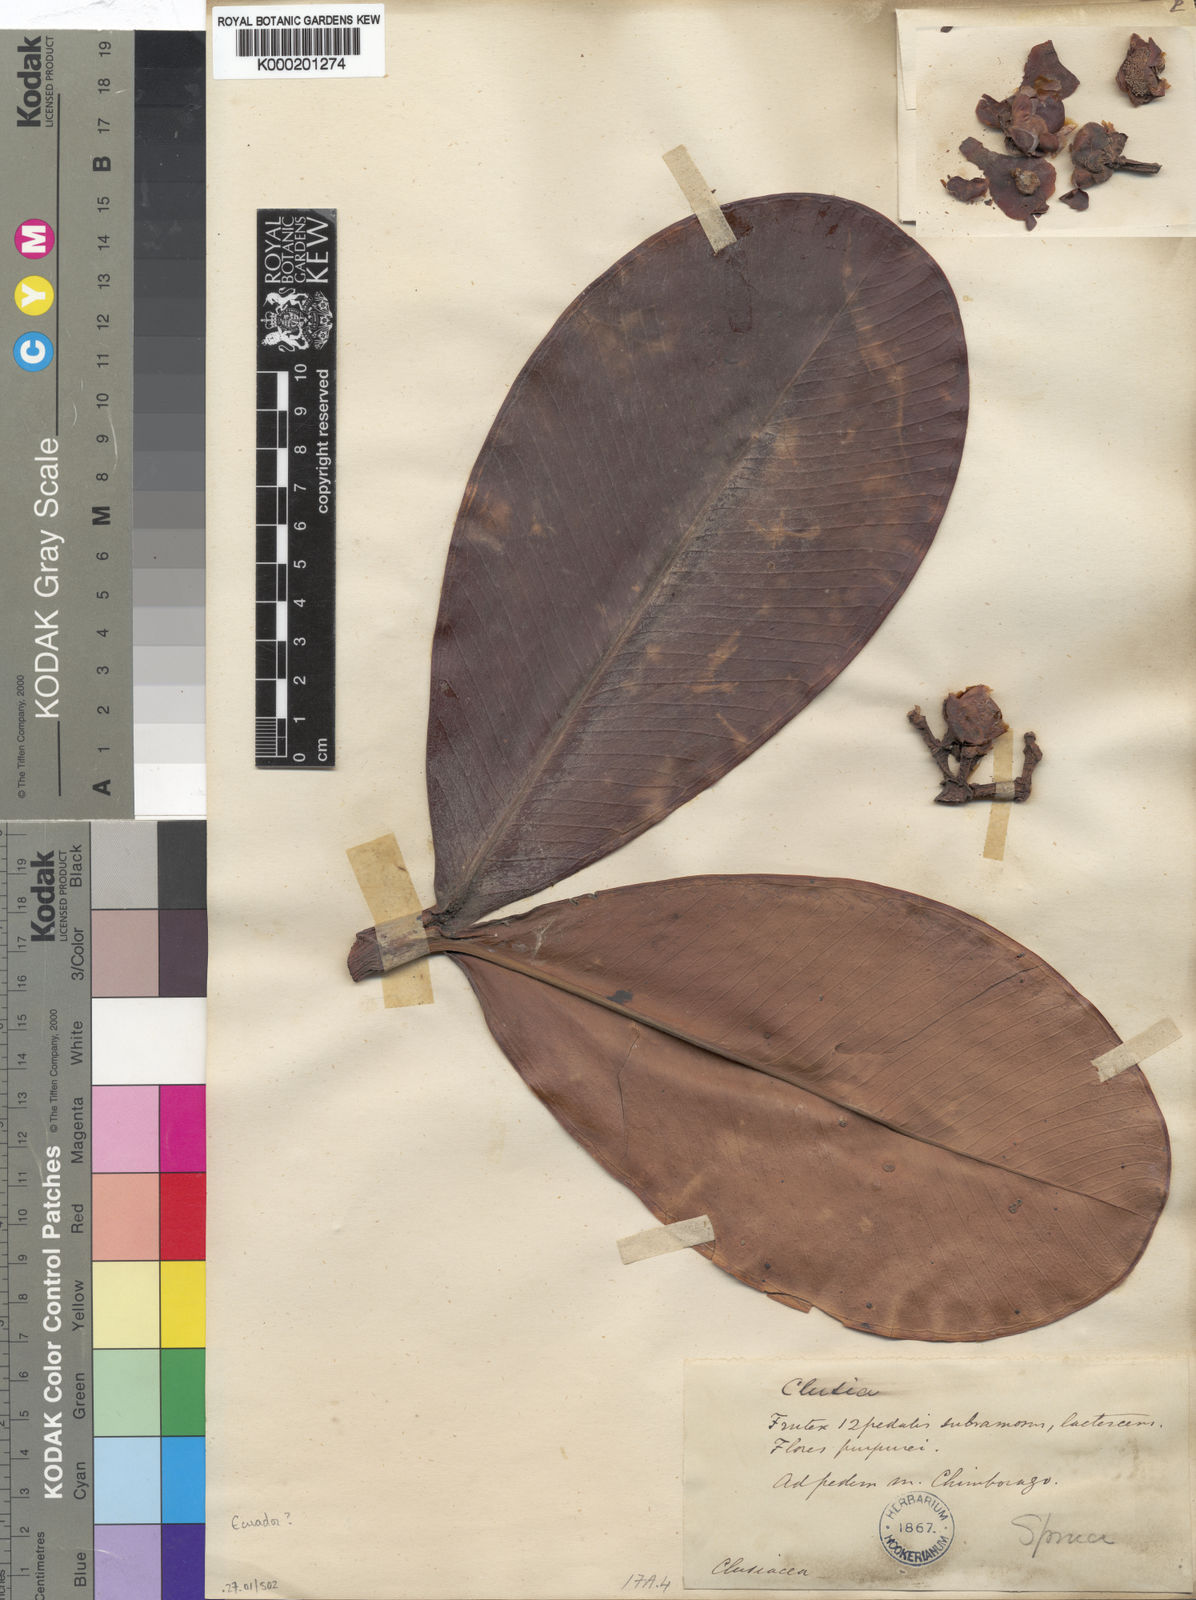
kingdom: Plantae
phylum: Tracheophyta
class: Magnoliopsida
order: Malpighiales
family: Clusiaceae
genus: Clusia
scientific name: Clusia
